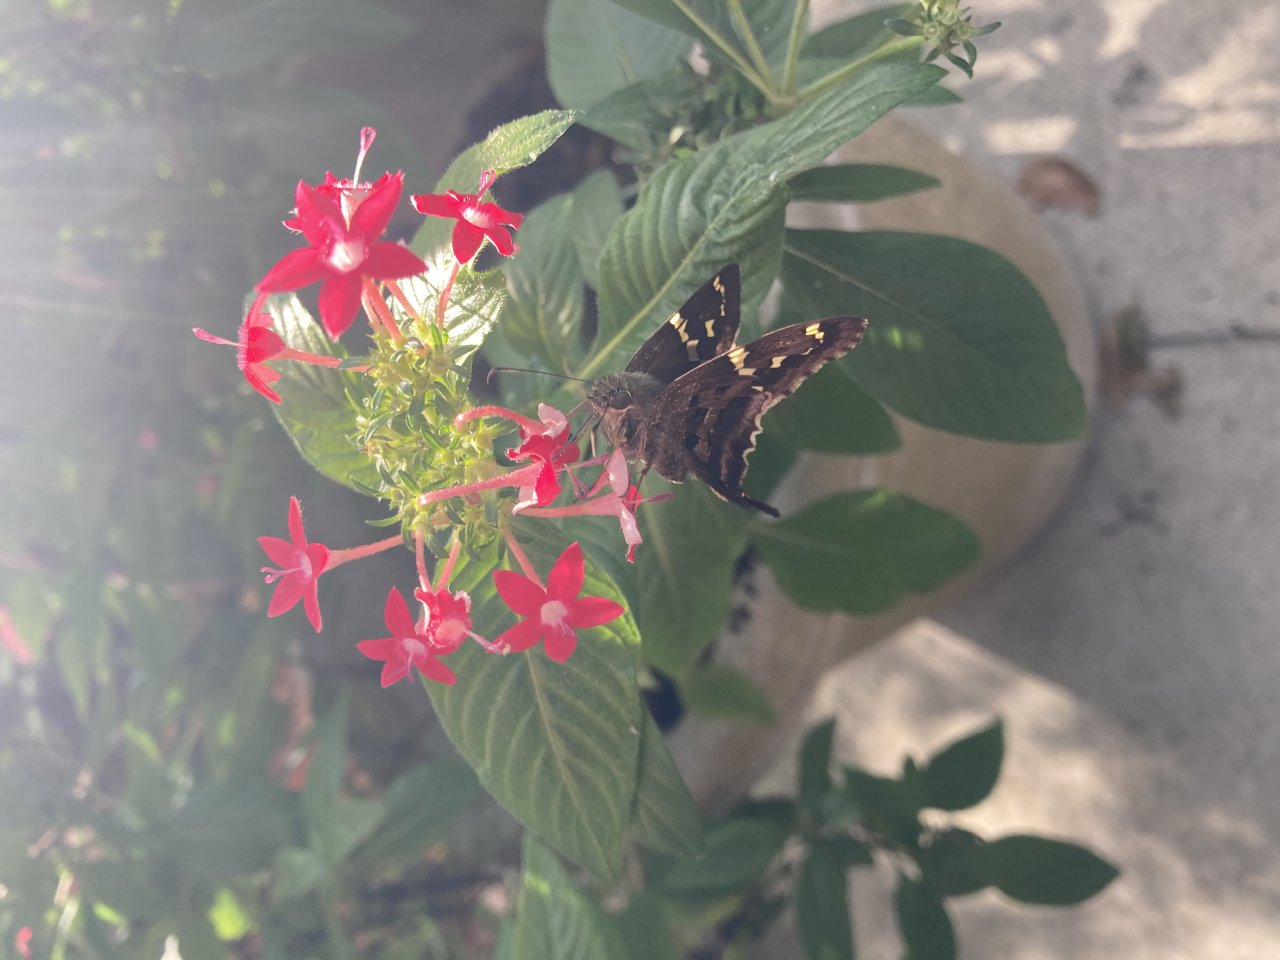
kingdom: Animalia
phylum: Arthropoda
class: Insecta
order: Lepidoptera
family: Hesperiidae
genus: Urbanus
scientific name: Urbanus proteus
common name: Long-tailed Skipper
